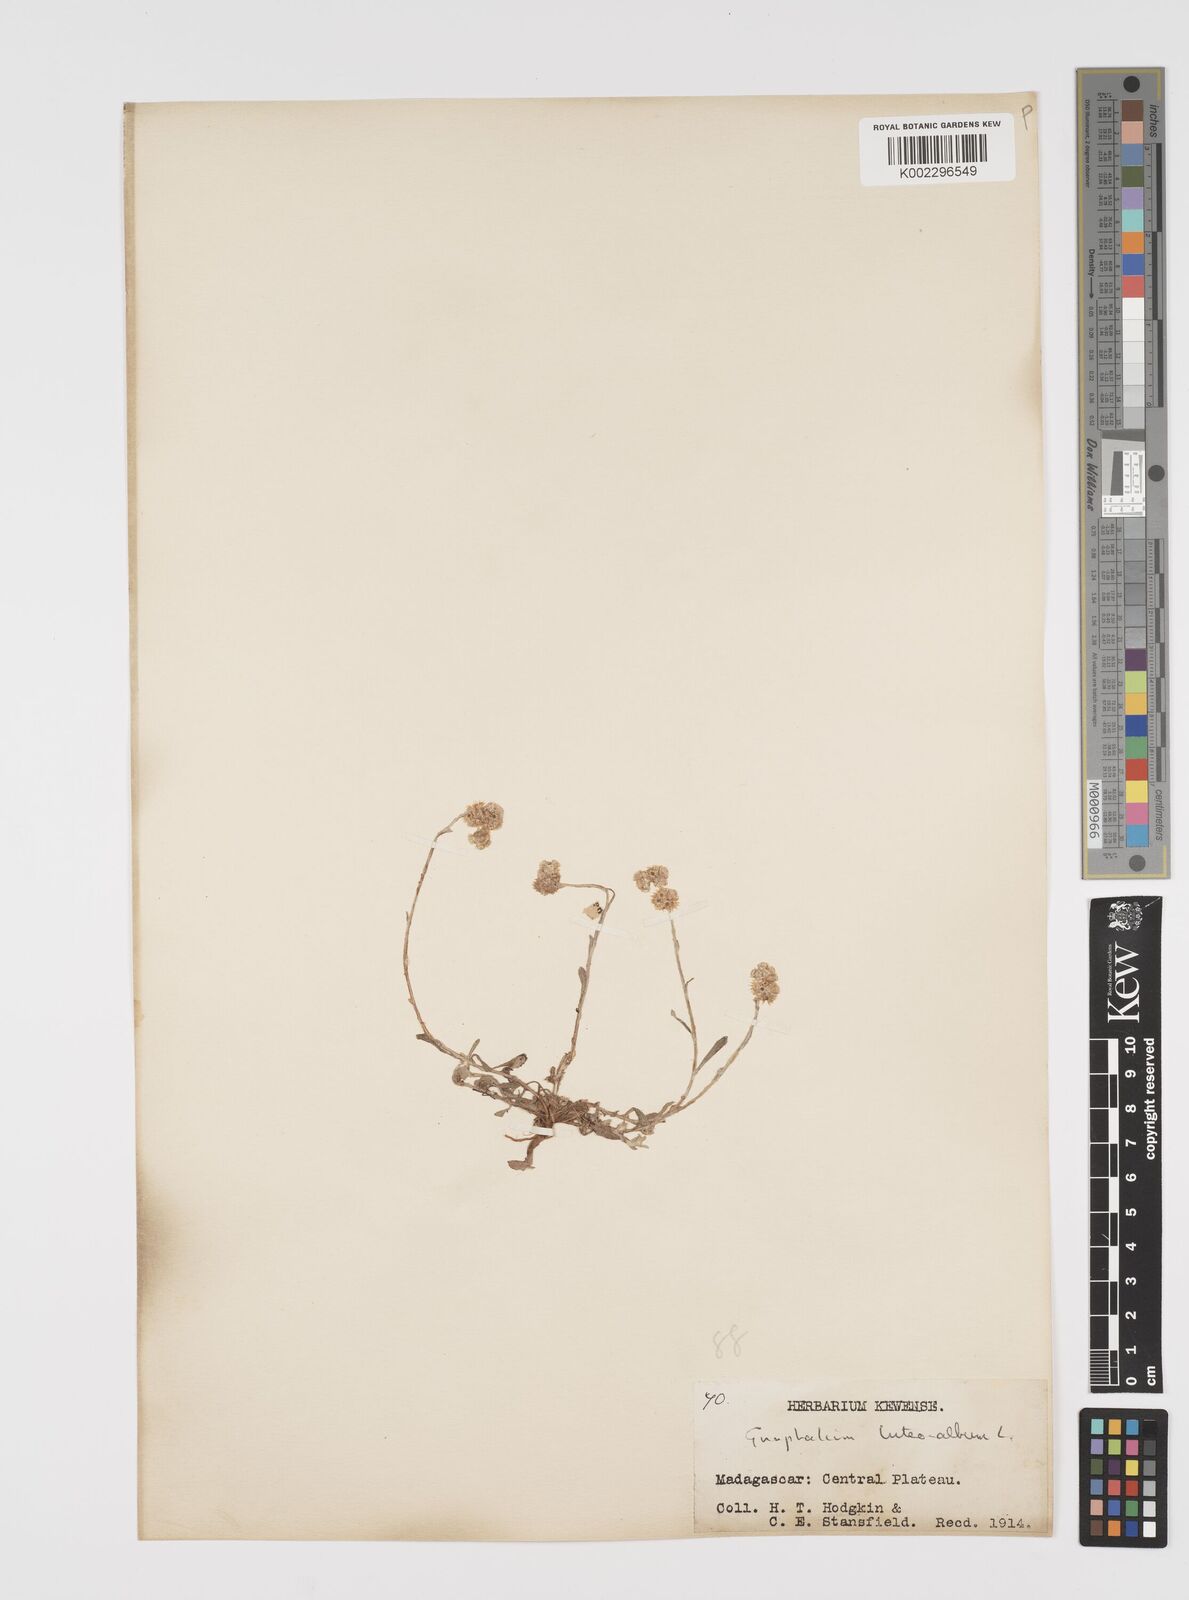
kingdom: Plantae
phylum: Tracheophyta
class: Magnoliopsida
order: Asterales
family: Asteraceae
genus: Helichrysum
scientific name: Helichrysum luteoalbum
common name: Daisy
